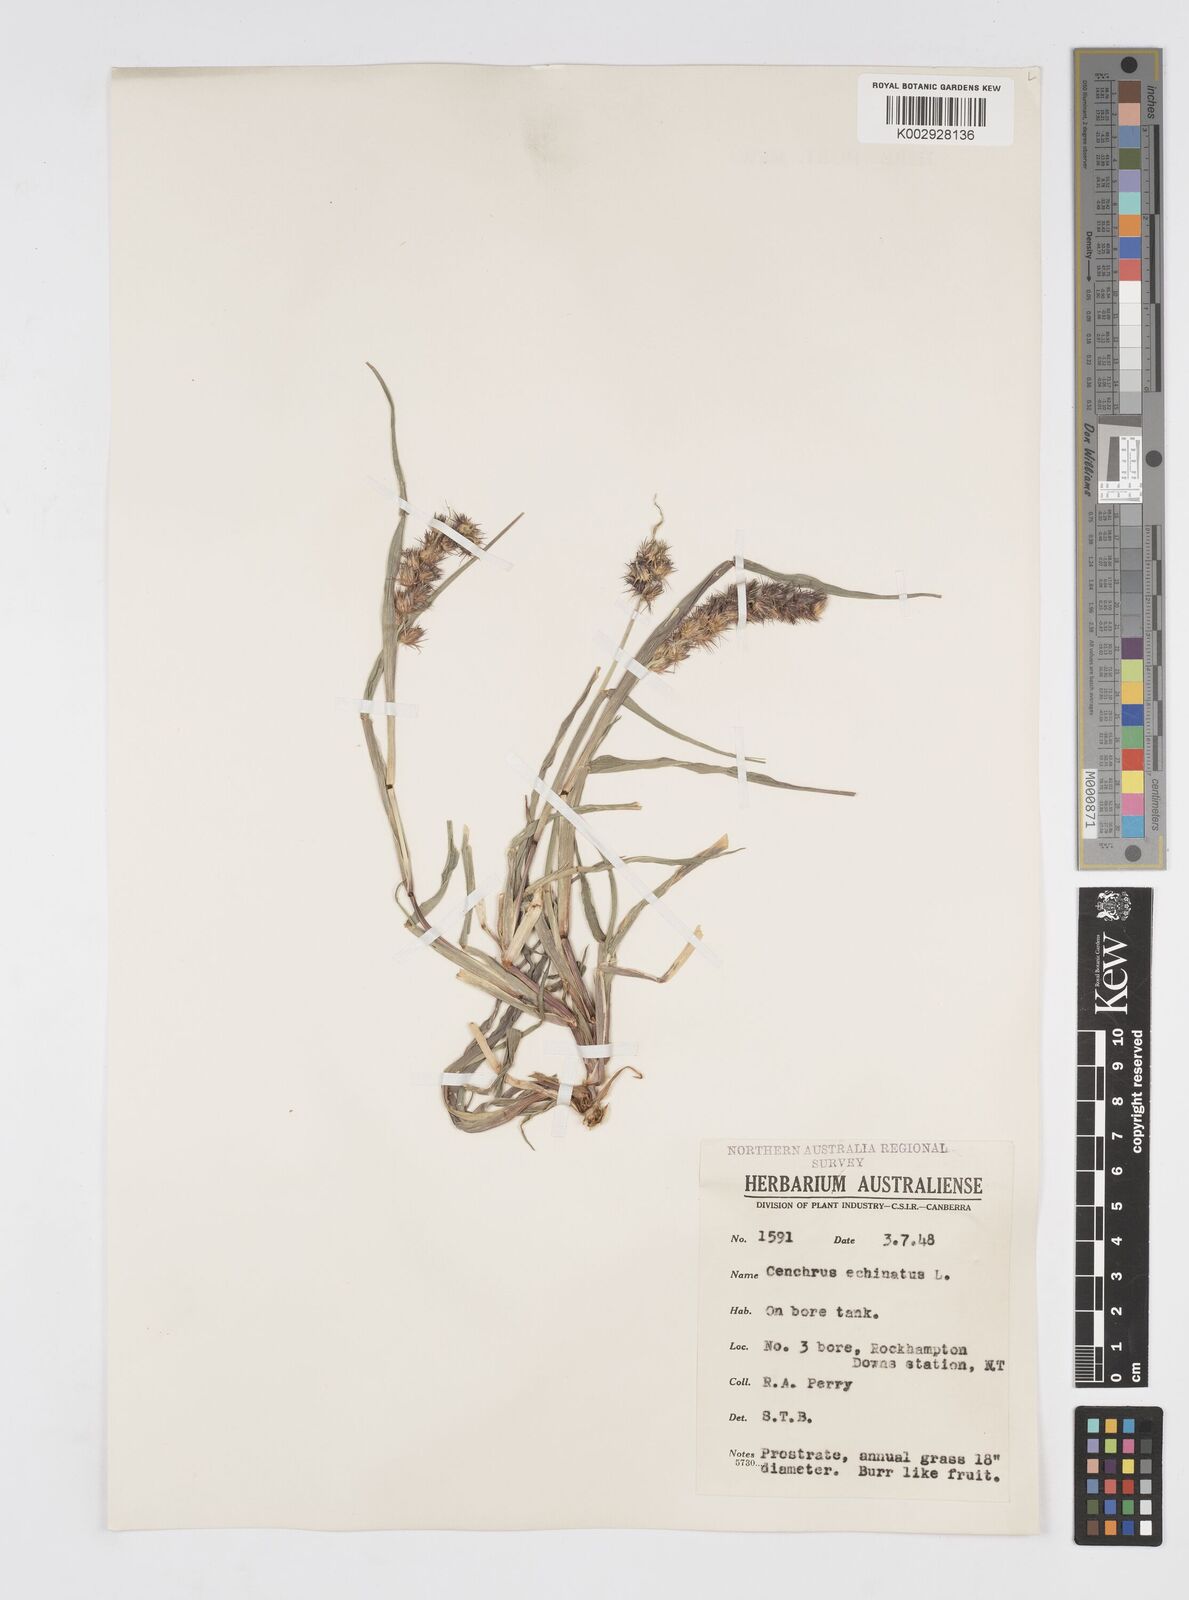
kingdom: Plantae
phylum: Tracheophyta
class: Liliopsida
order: Poales
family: Poaceae
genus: Cenchrus
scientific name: Cenchrus echinatus
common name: Southern sandbur
